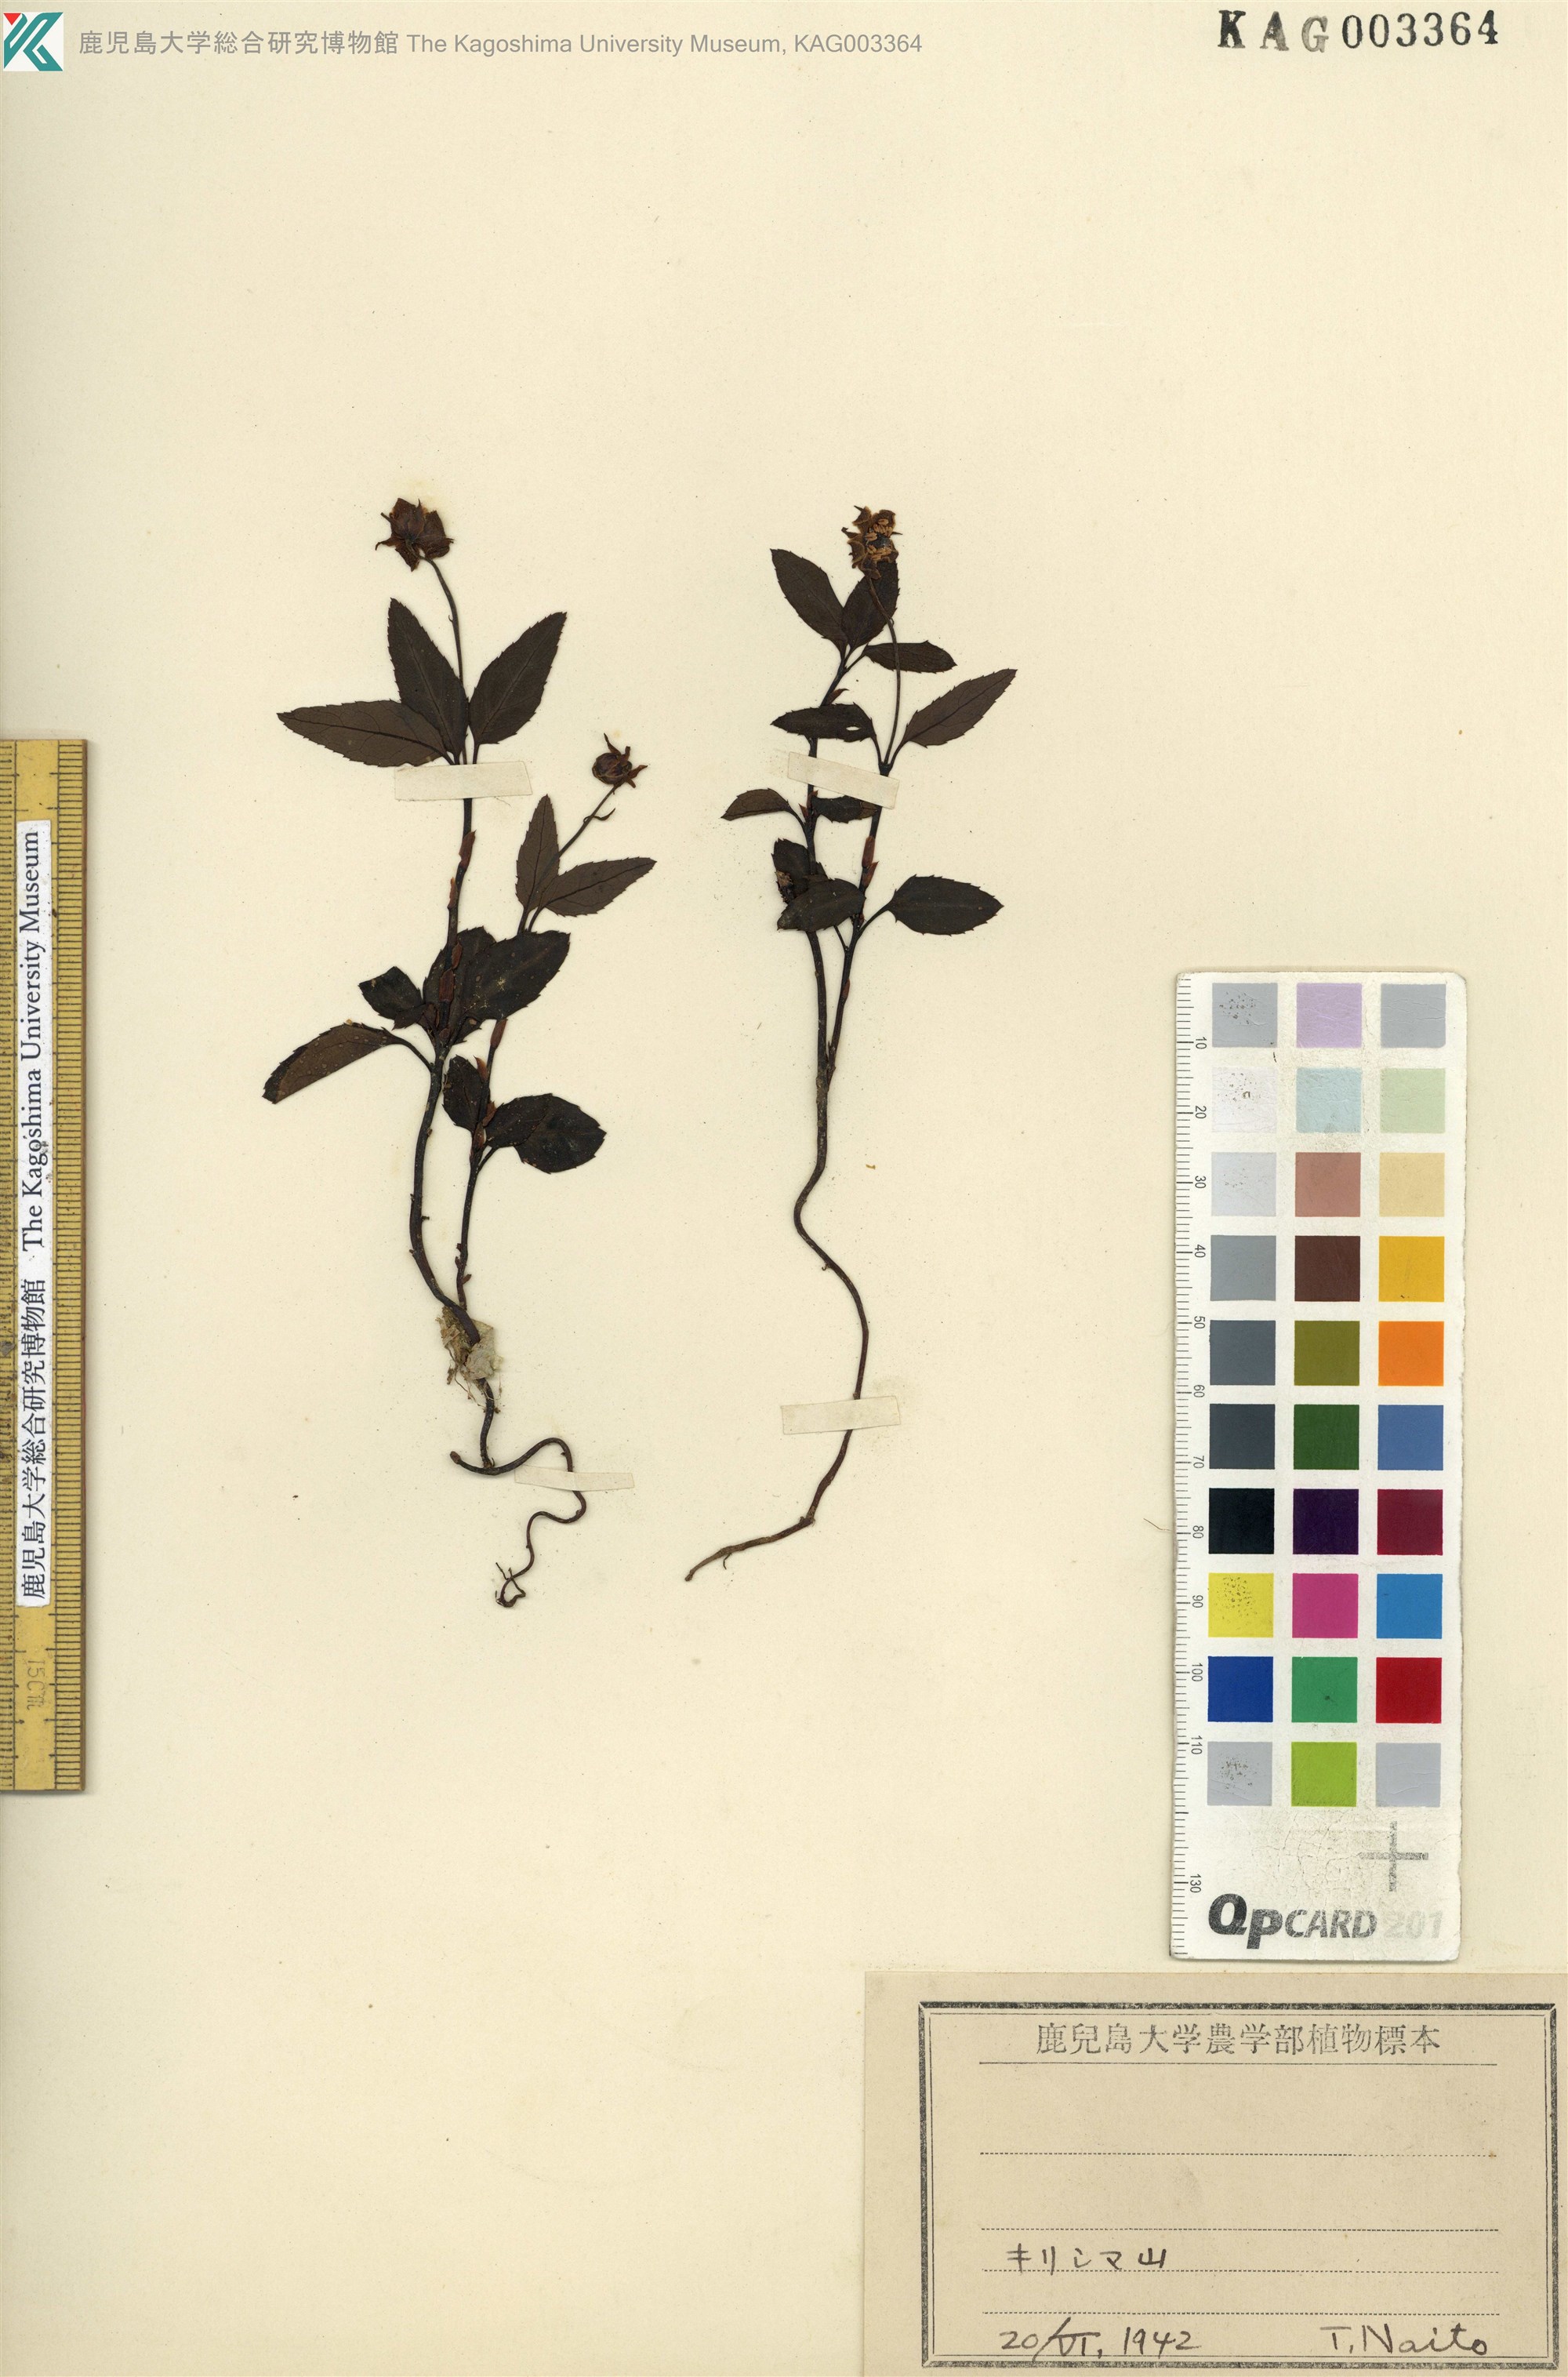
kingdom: Plantae
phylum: Tracheophyta
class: Magnoliopsida
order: Ericales
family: Ericaceae
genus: Chimaphila
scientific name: Chimaphila japonica
